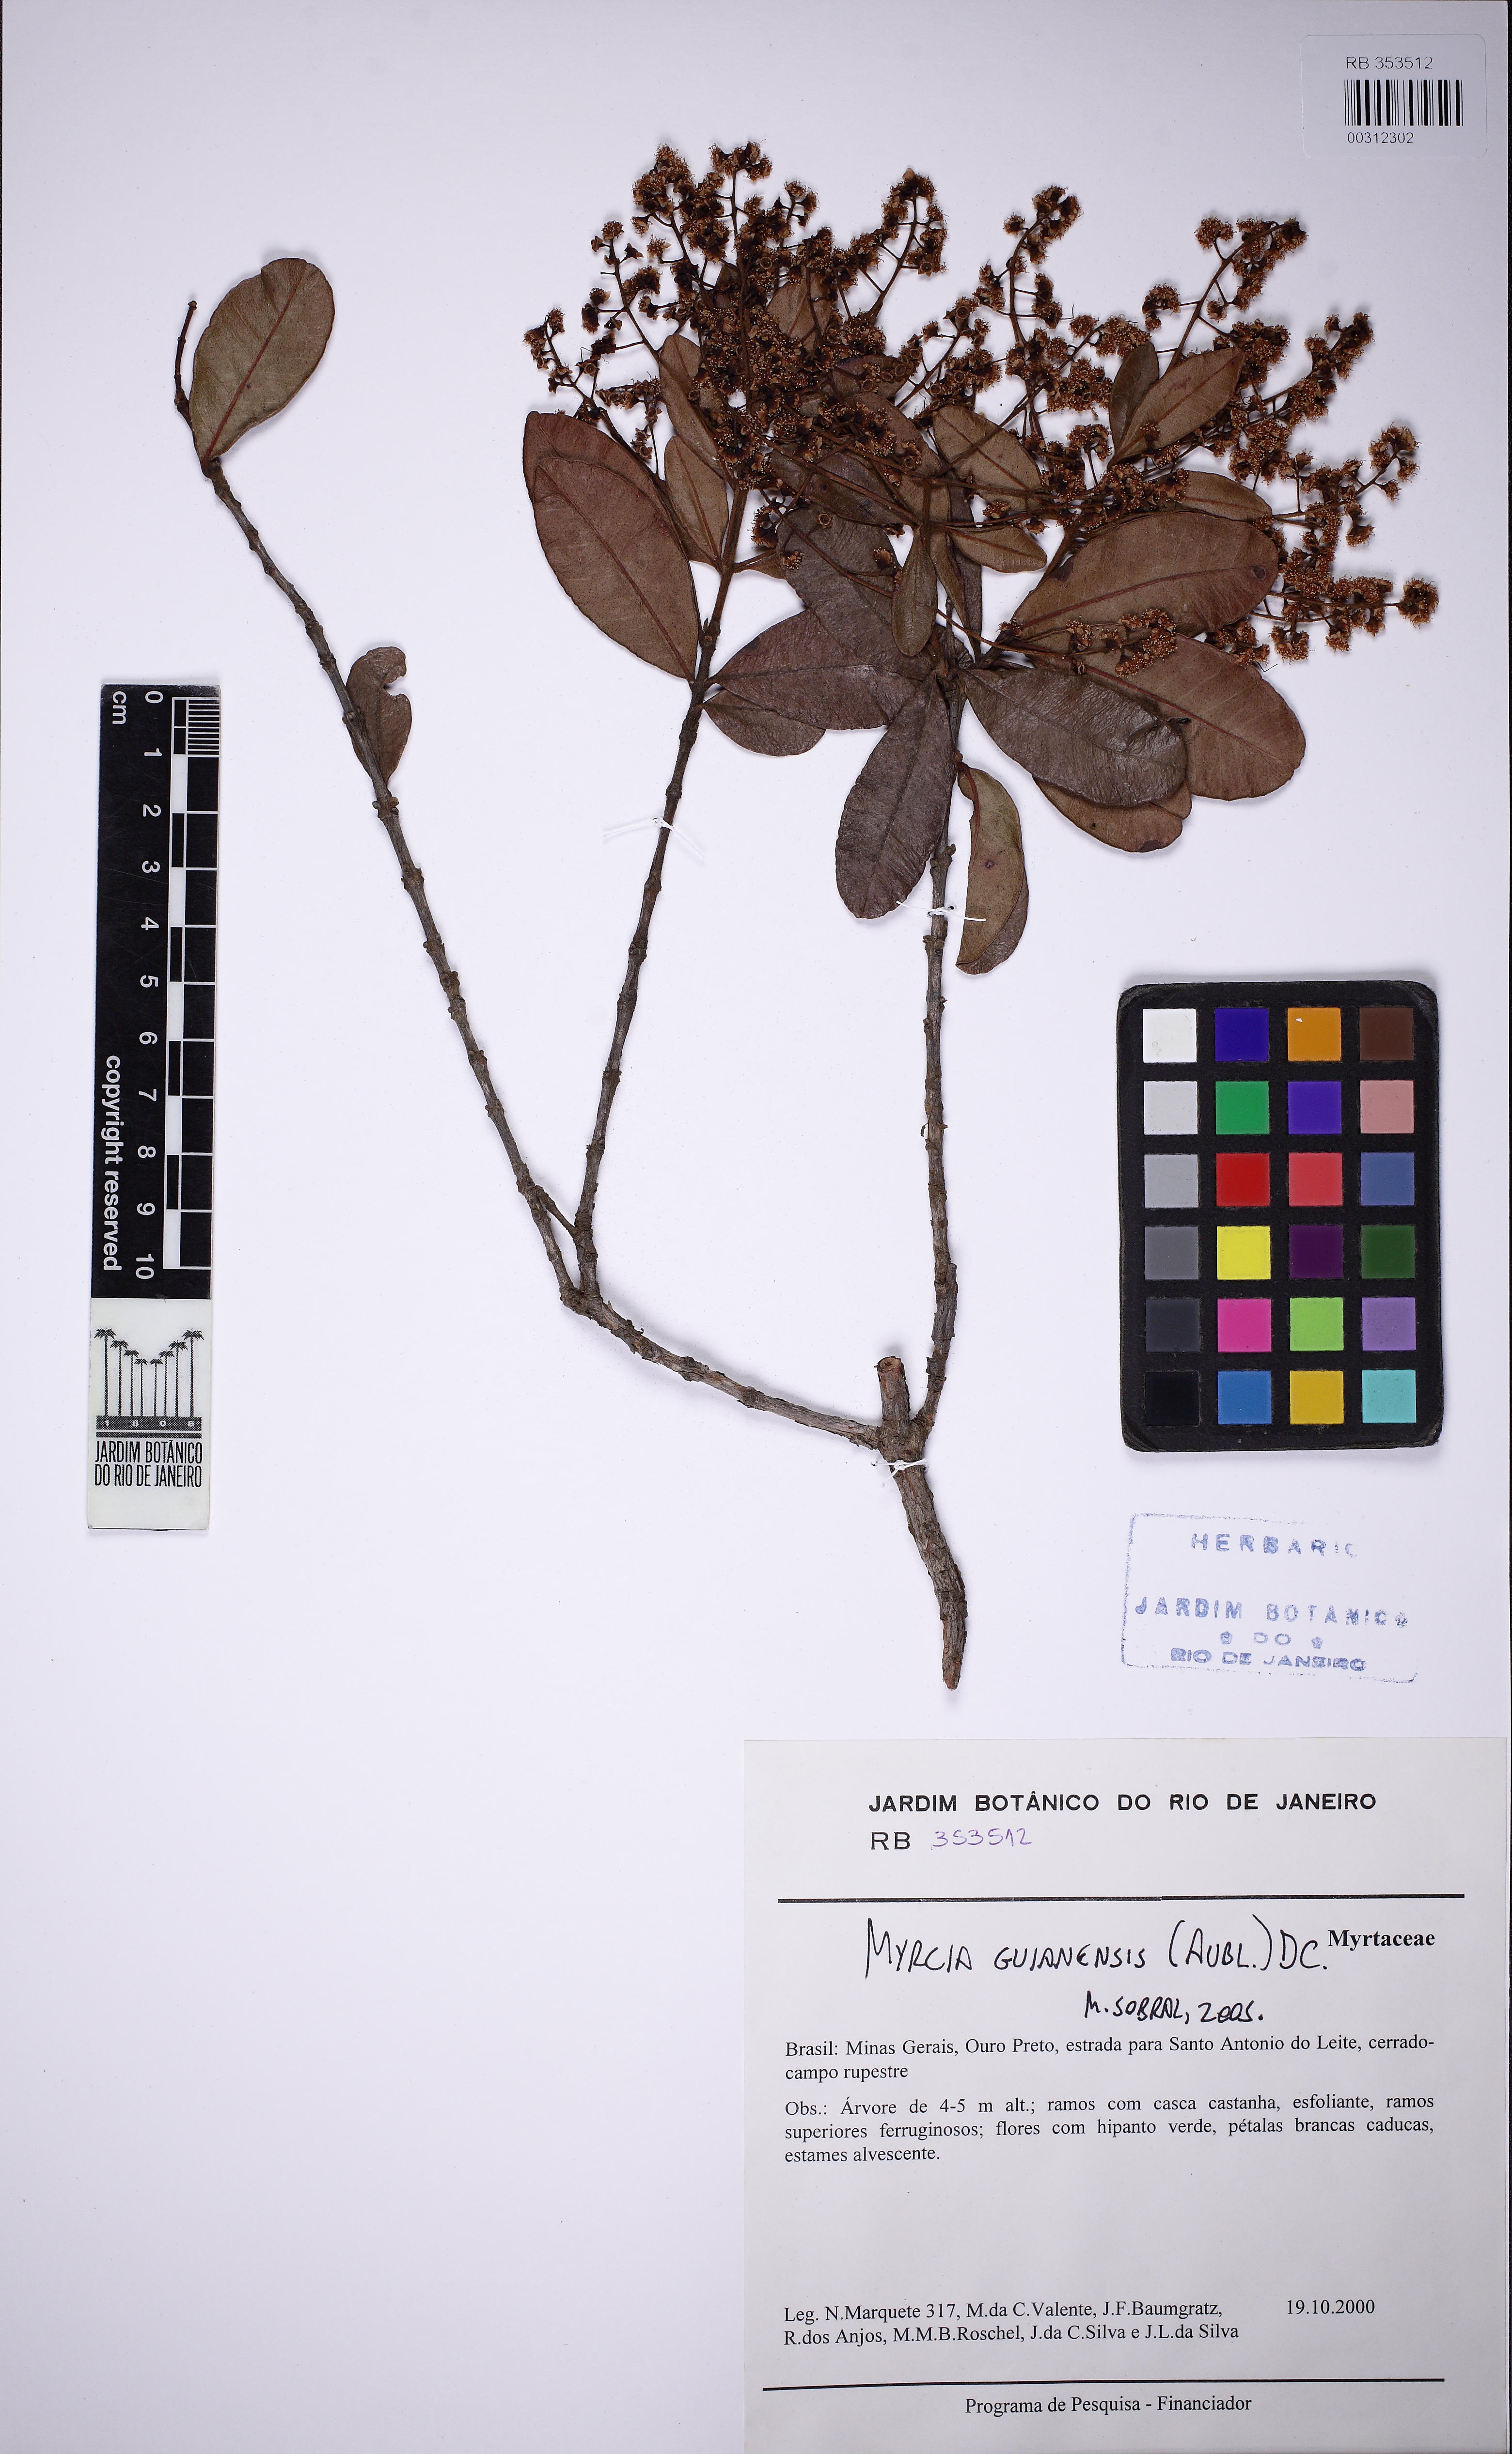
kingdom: Plantae
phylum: Tracheophyta
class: Magnoliopsida
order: Myrtales
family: Myrtaceae
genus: Myrcia
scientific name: Myrcia guianensis
